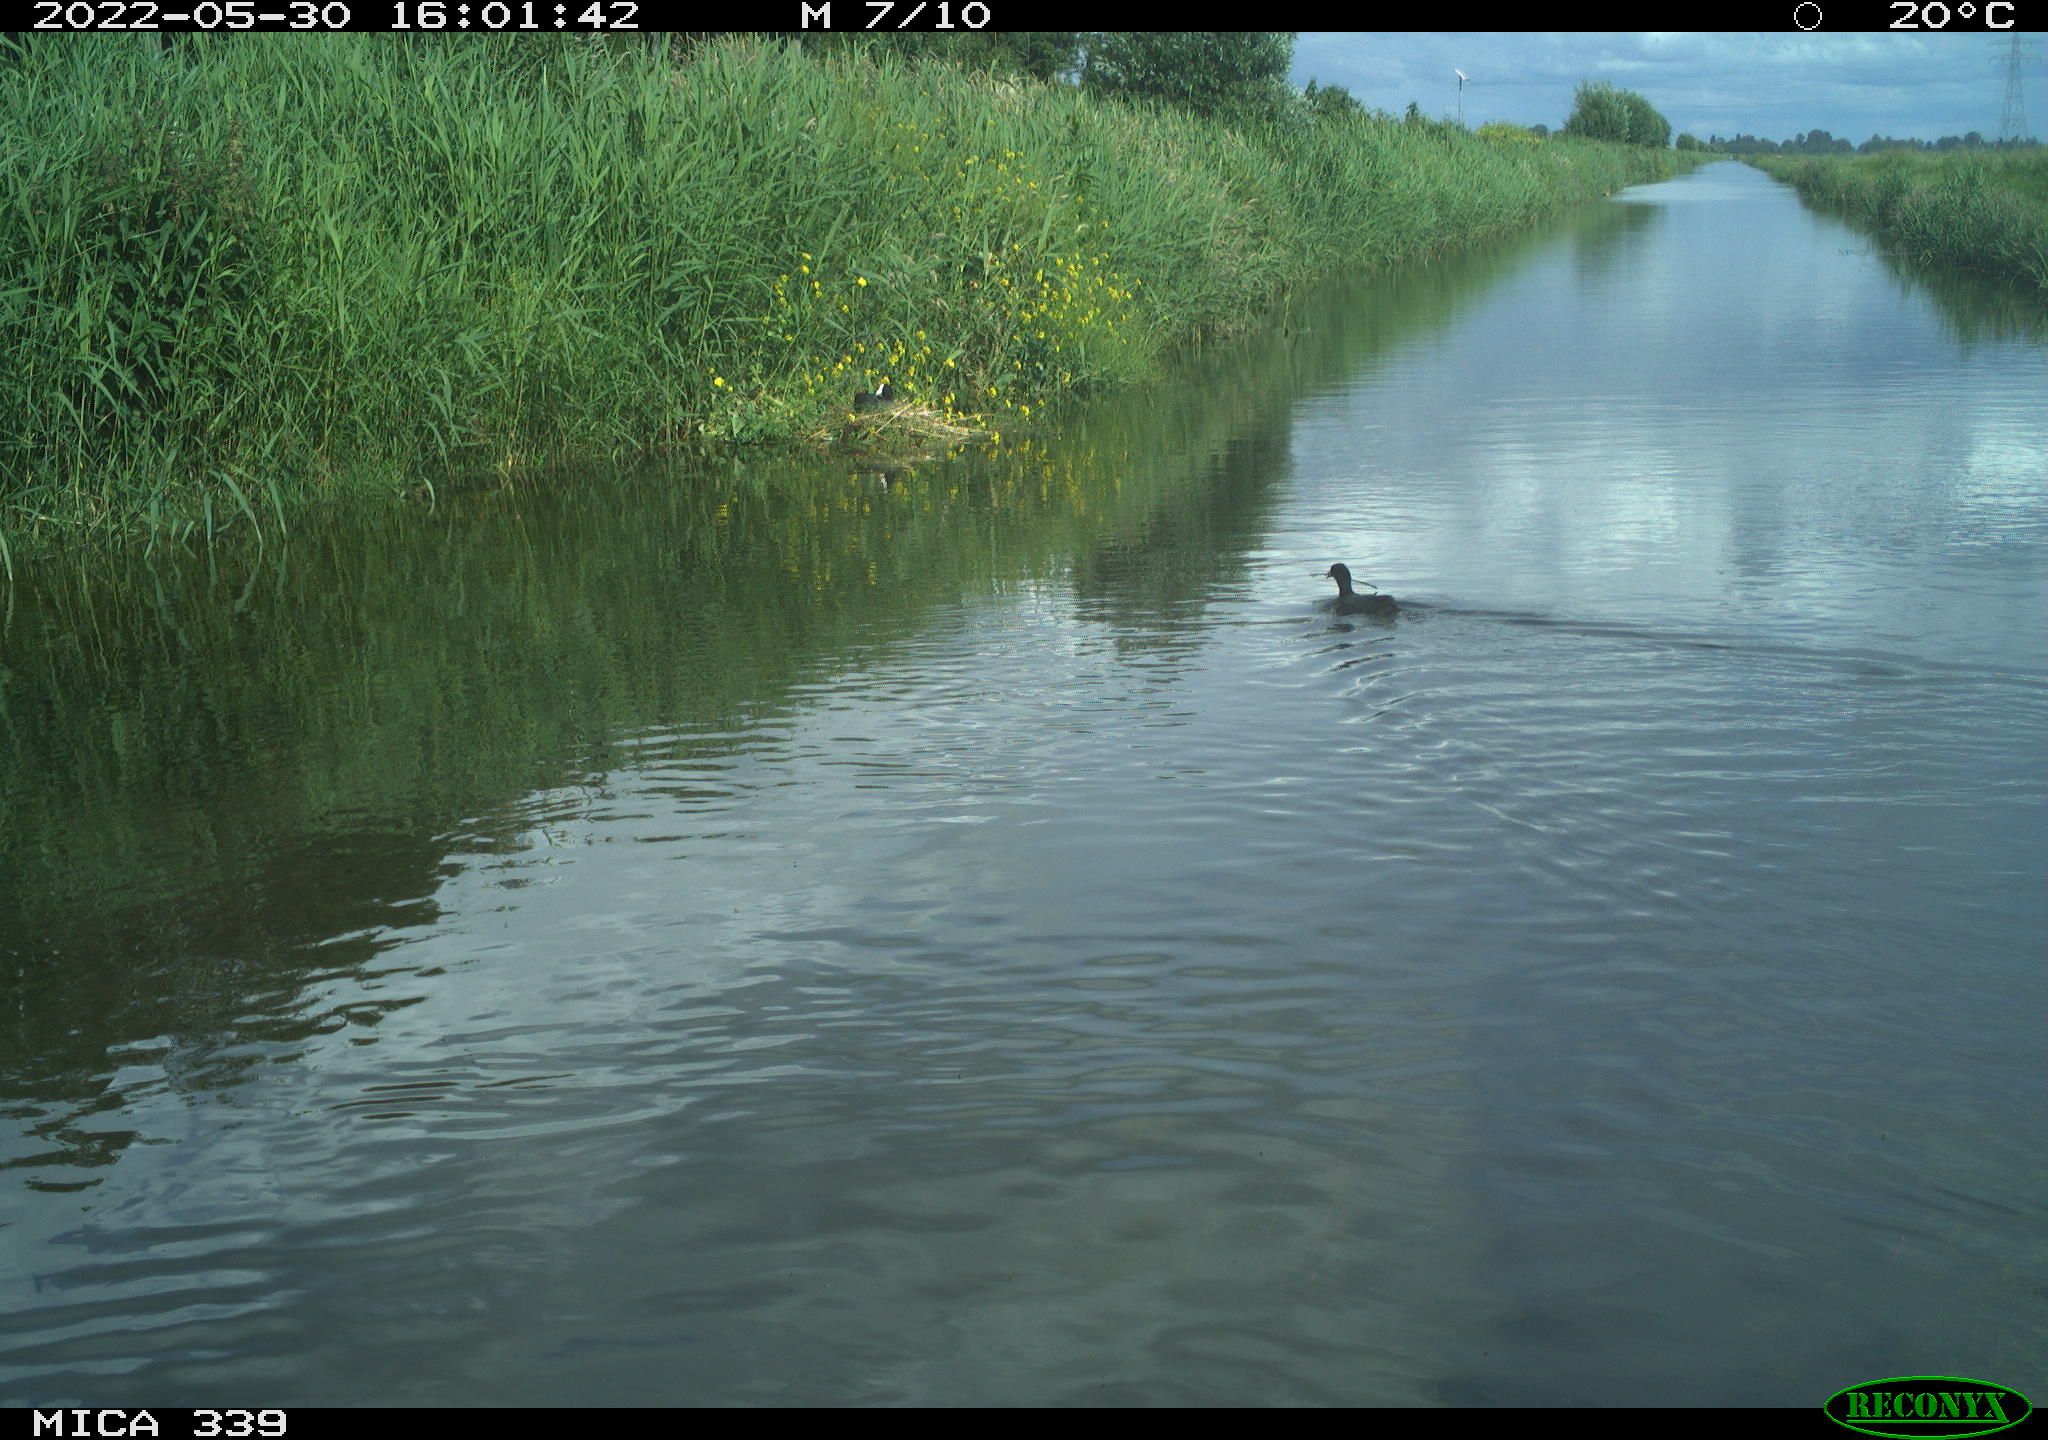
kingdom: Animalia
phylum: Chordata
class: Aves
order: Gruiformes
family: Rallidae
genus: Fulica
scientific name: Fulica atra
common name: Eurasian coot
